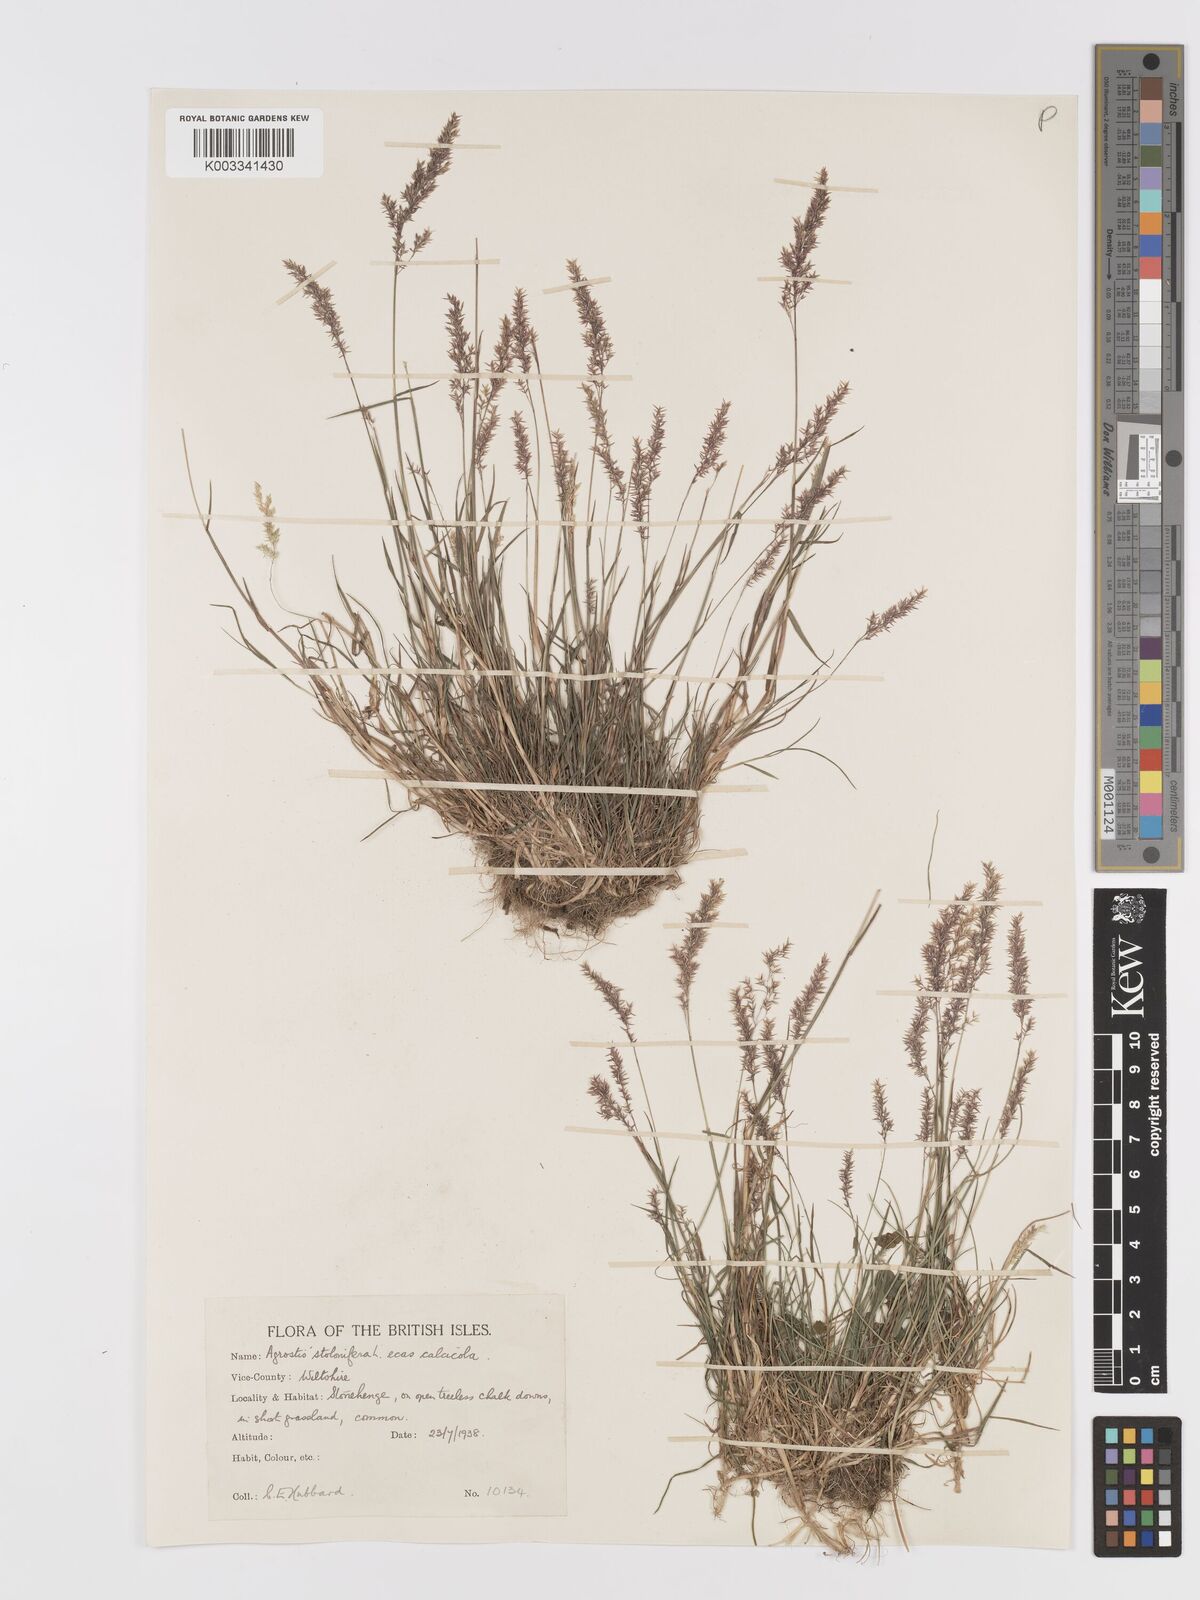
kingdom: Plantae
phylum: Tracheophyta
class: Liliopsida
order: Poales
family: Poaceae
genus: Agrostis
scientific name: Agrostis stolonifera
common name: Creeping bentgrass
